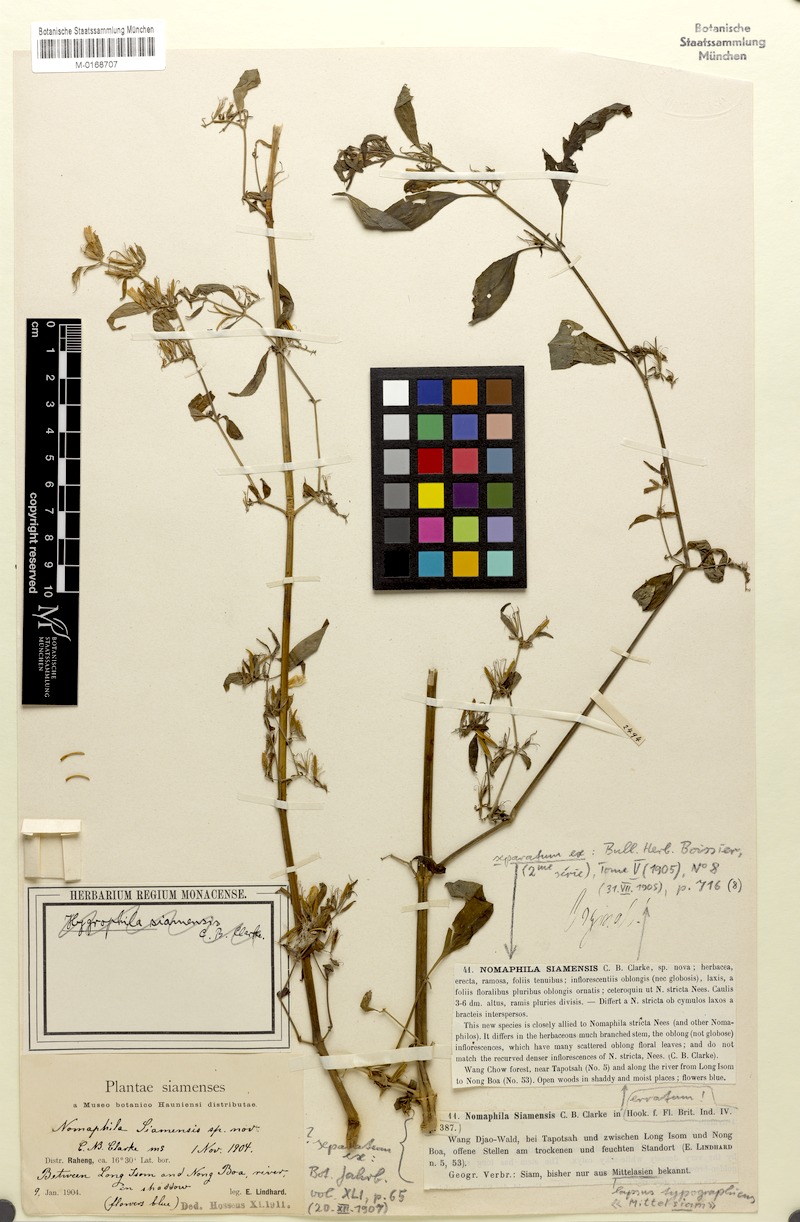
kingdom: Plantae
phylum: Tracheophyta
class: Magnoliopsida
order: Lamiales
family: Acanthaceae
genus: Hygrophila
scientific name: Hygrophila corymbosa
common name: Starhorn
